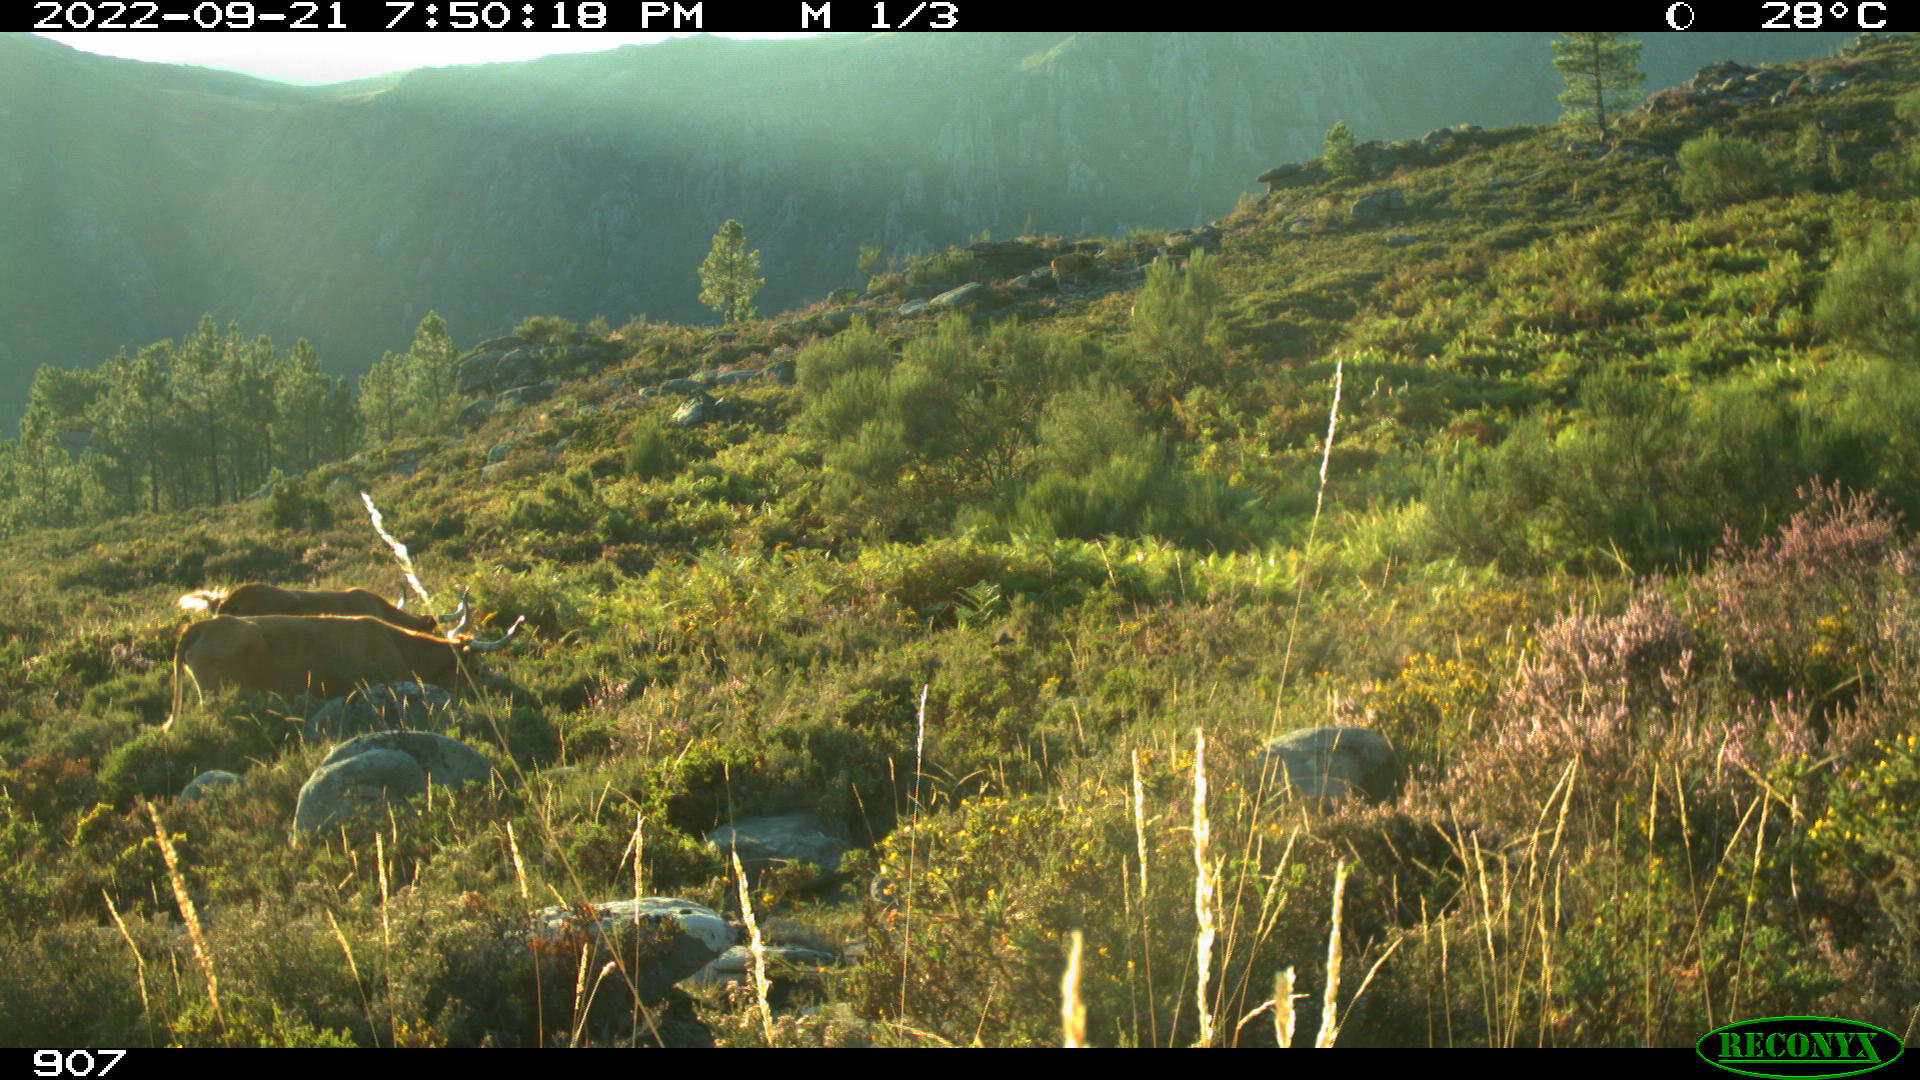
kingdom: Animalia
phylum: Chordata
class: Mammalia
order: Artiodactyla
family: Bovidae
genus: Bos
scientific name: Bos taurus
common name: Domesticated cattle
